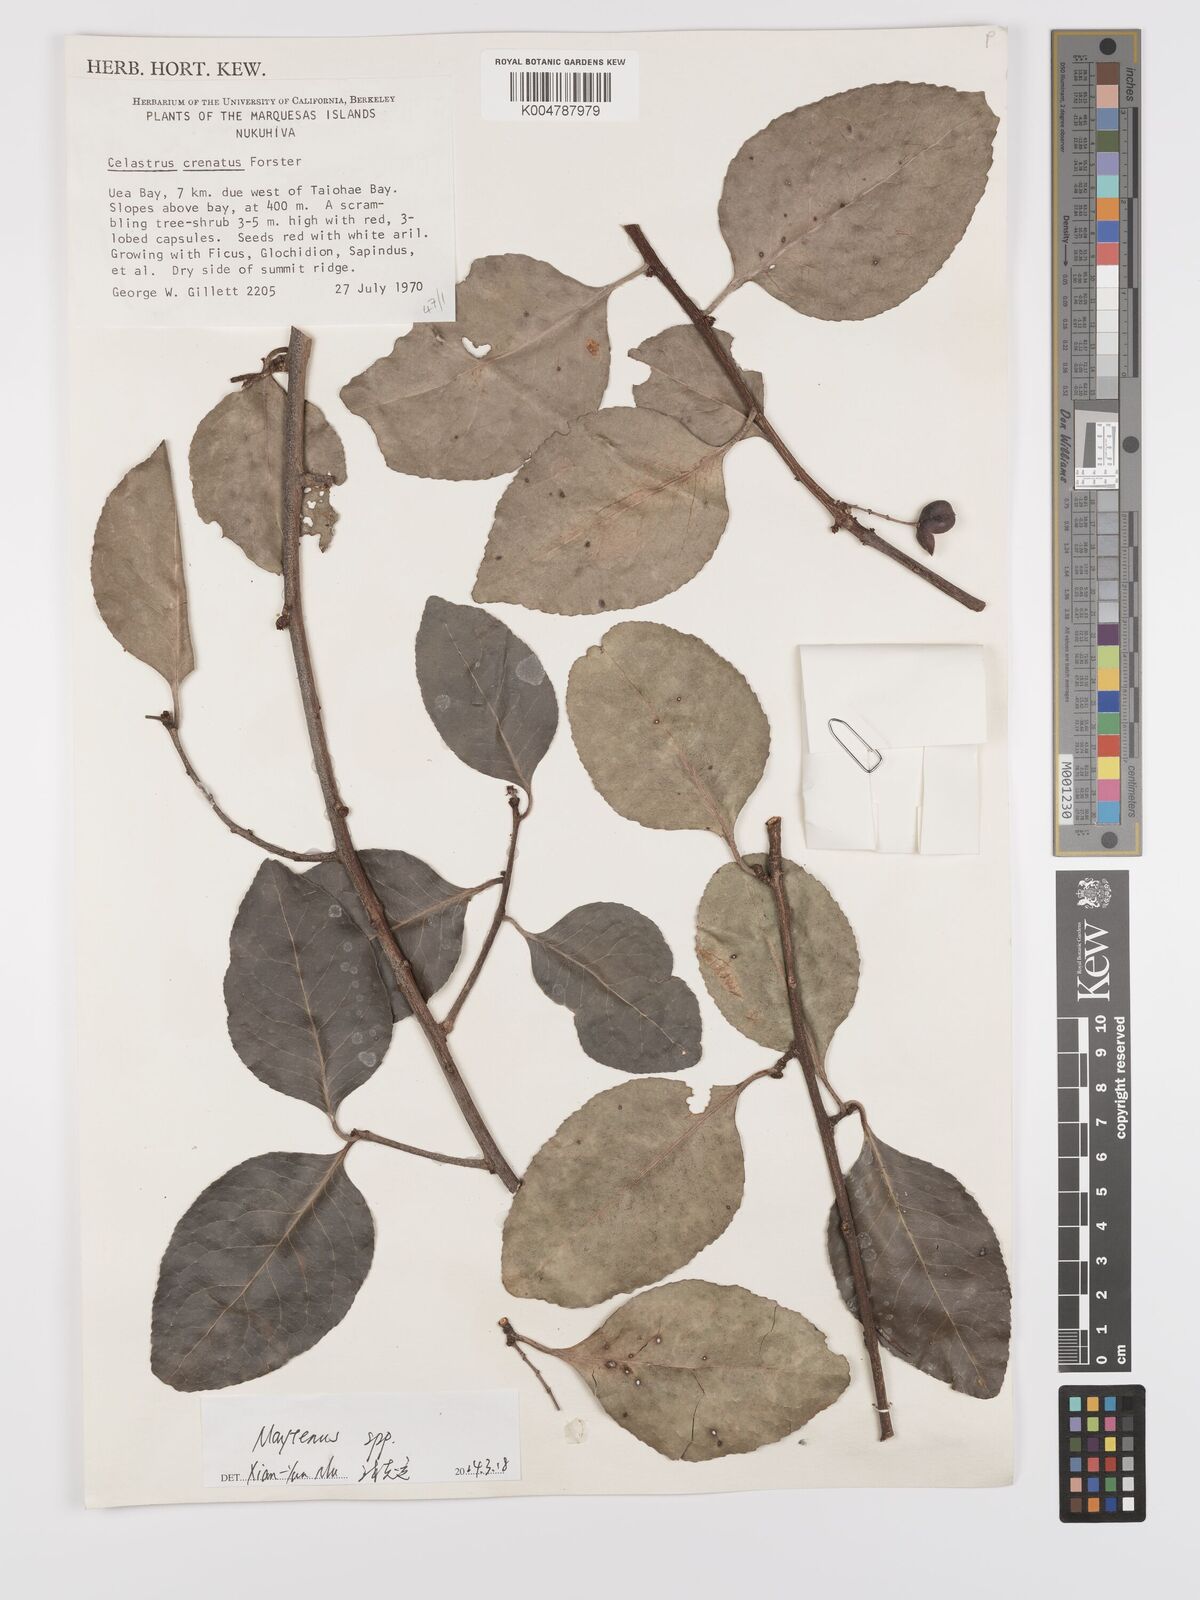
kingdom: Plantae
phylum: Tracheophyta
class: Magnoliopsida
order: Celastrales
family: Celastraceae
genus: Denhamia
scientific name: Denhamia
